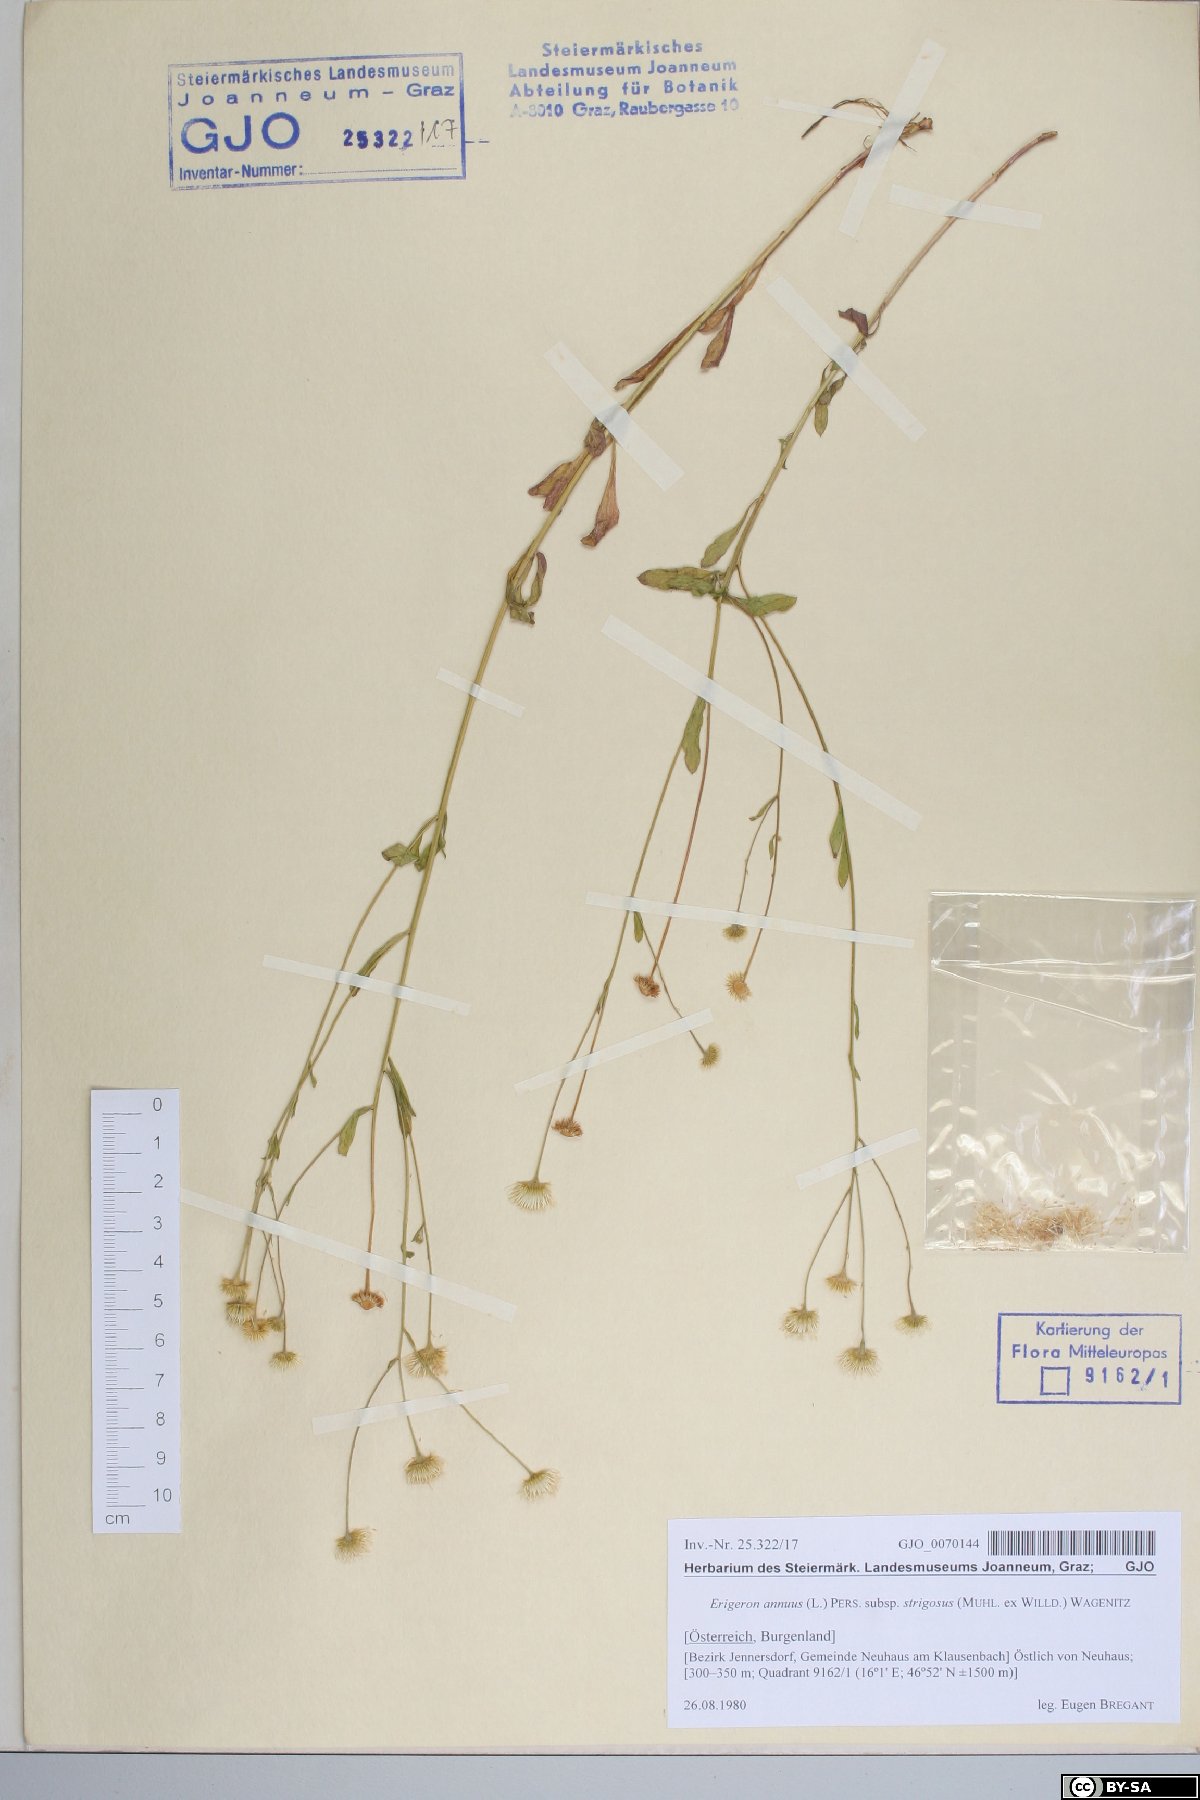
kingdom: Plantae
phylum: Tracheophyta
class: Magnoliopsida
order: Asterales
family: Asteraceae
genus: Erigeron
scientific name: Erigeron strigosus
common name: Common eastern fleabane
